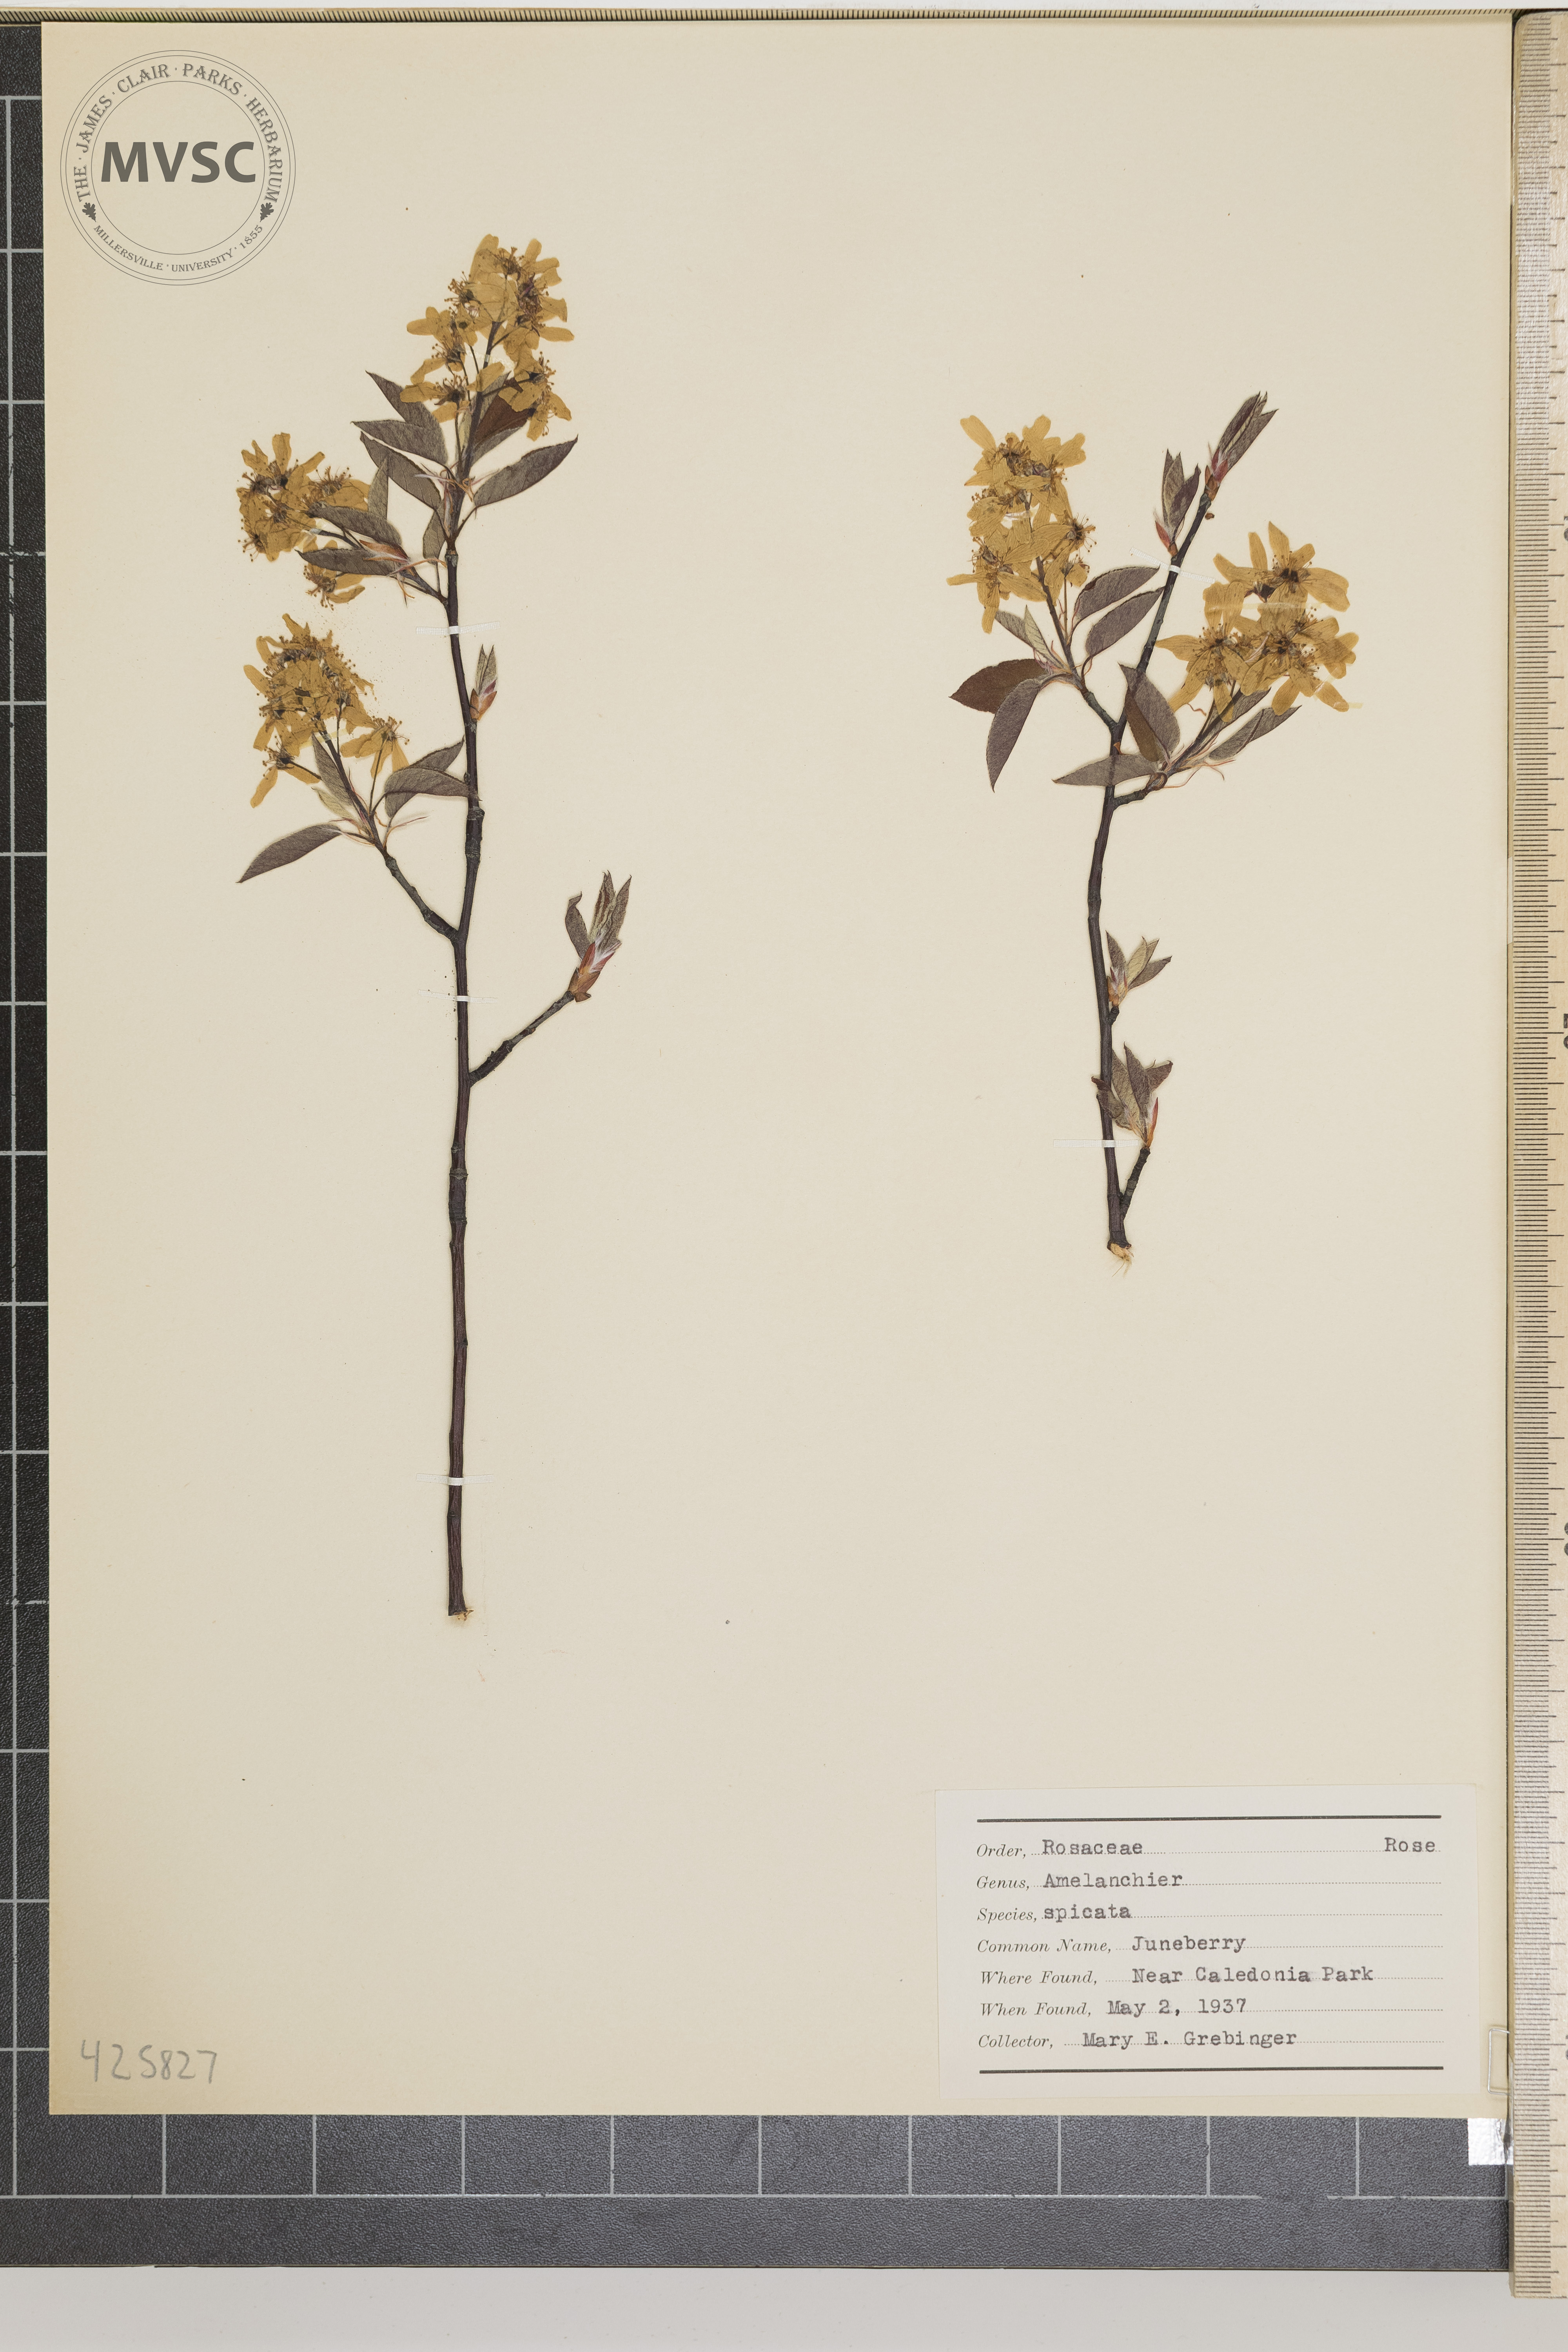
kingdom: Plantae
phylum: Tracheophyta
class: Magnoliopsida
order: Rosales
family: Rosaceae
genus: Amelanchier
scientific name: Amelanchier
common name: Juneberry
